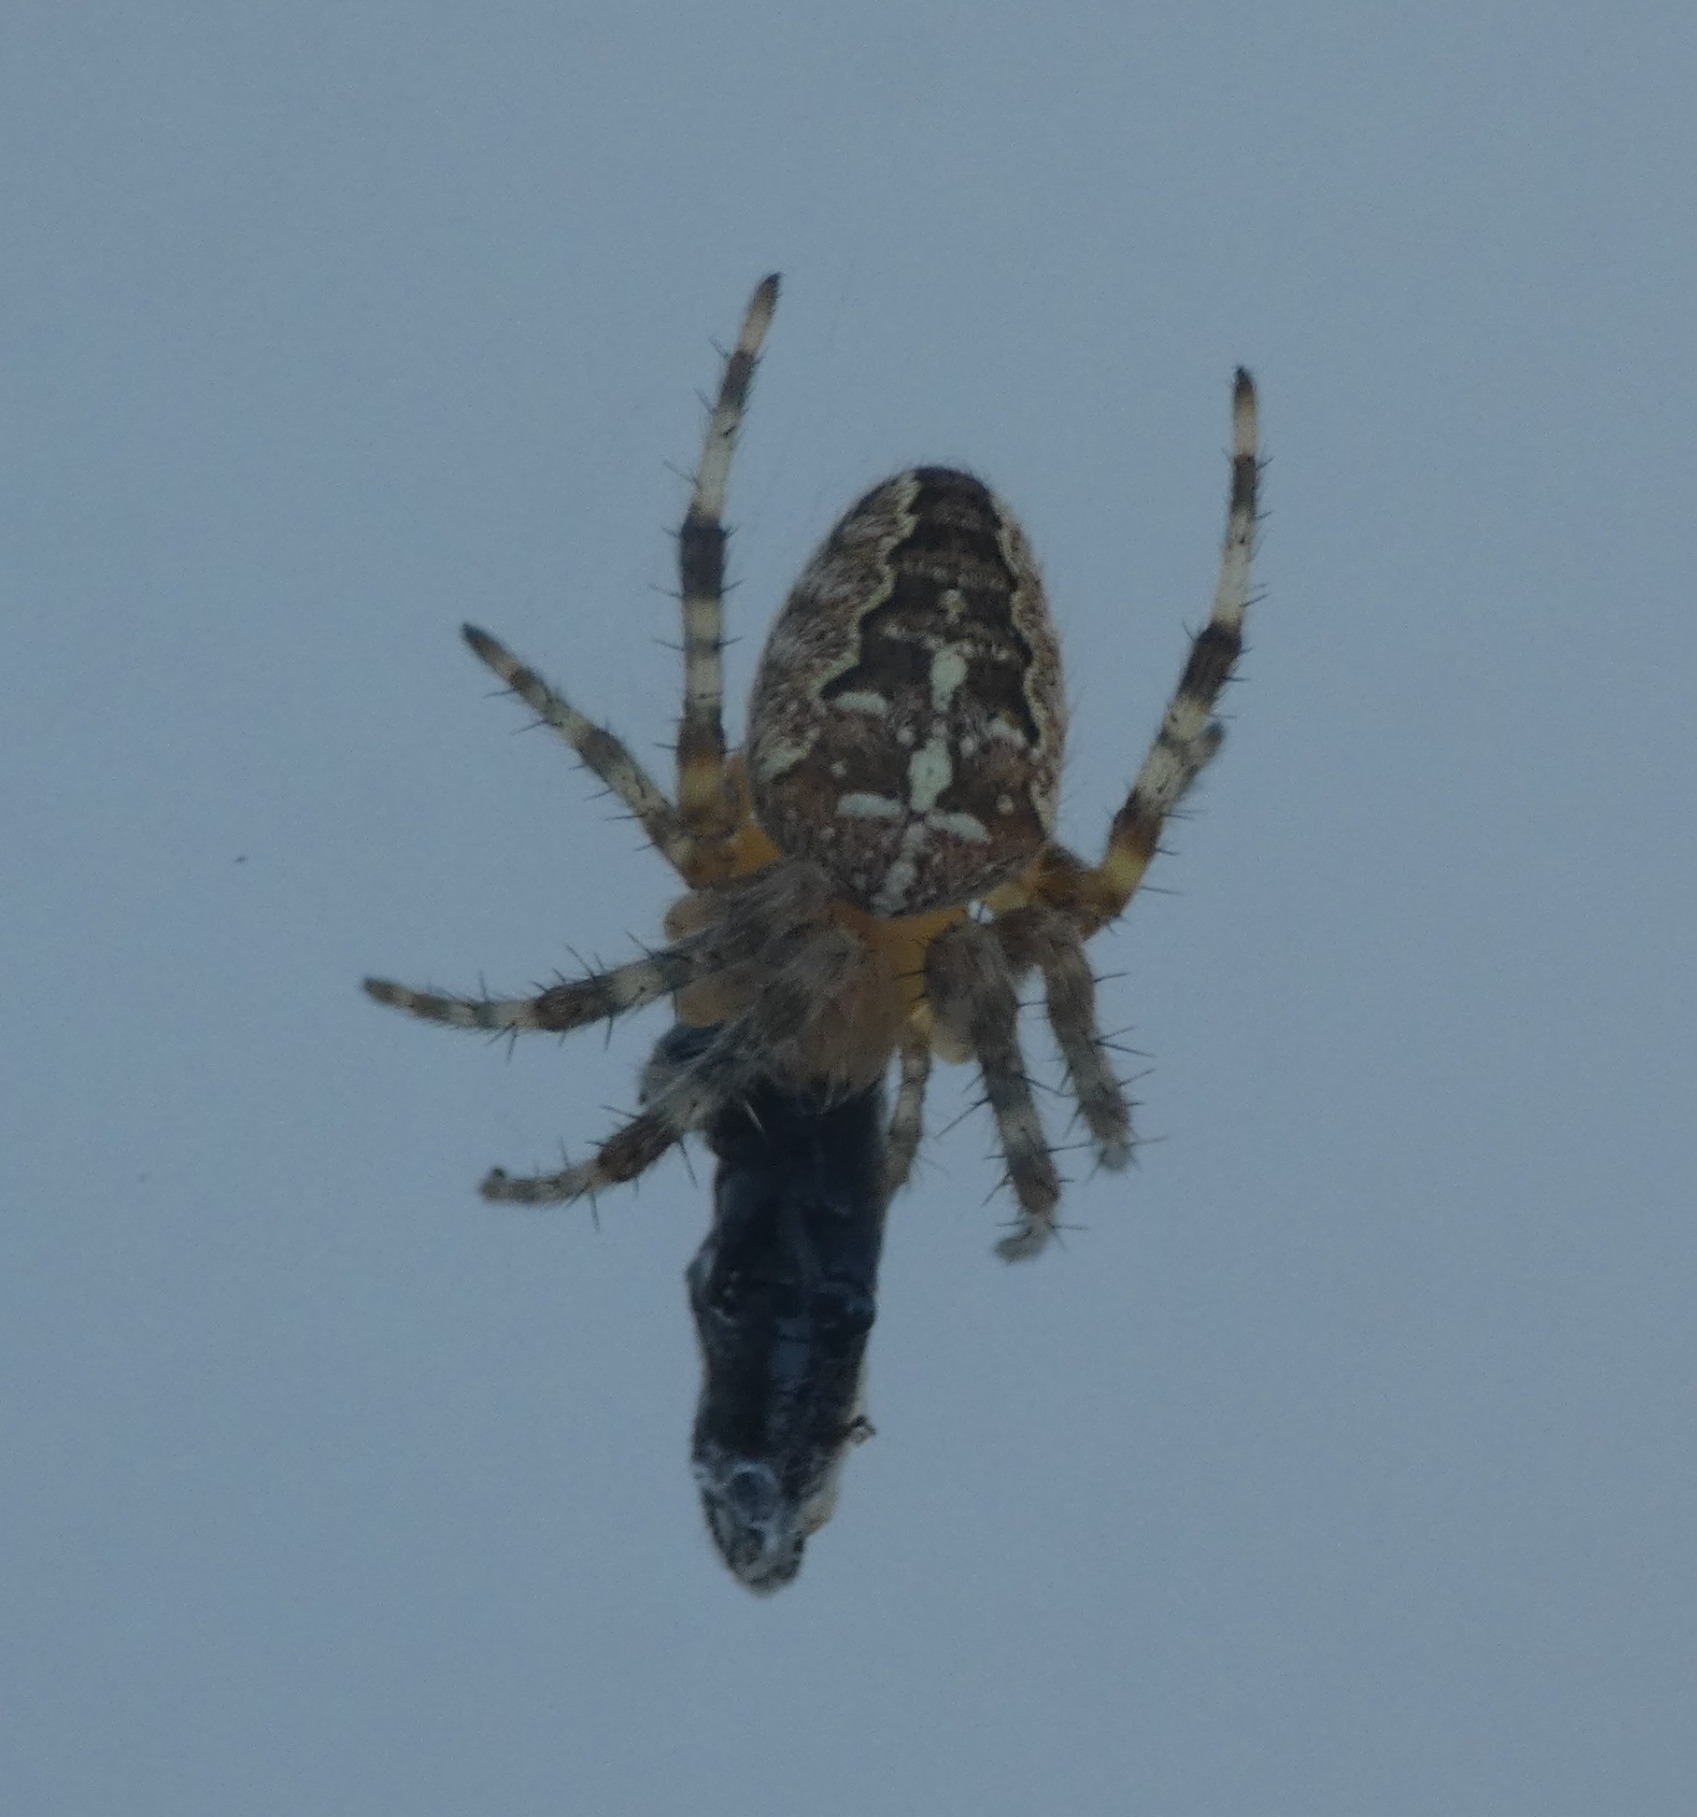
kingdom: Animalia
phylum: Arthropoda
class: Arachnida
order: Araneae
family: Araneidae
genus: Araneus
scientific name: Araneus diadematus
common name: Korsedderkop
